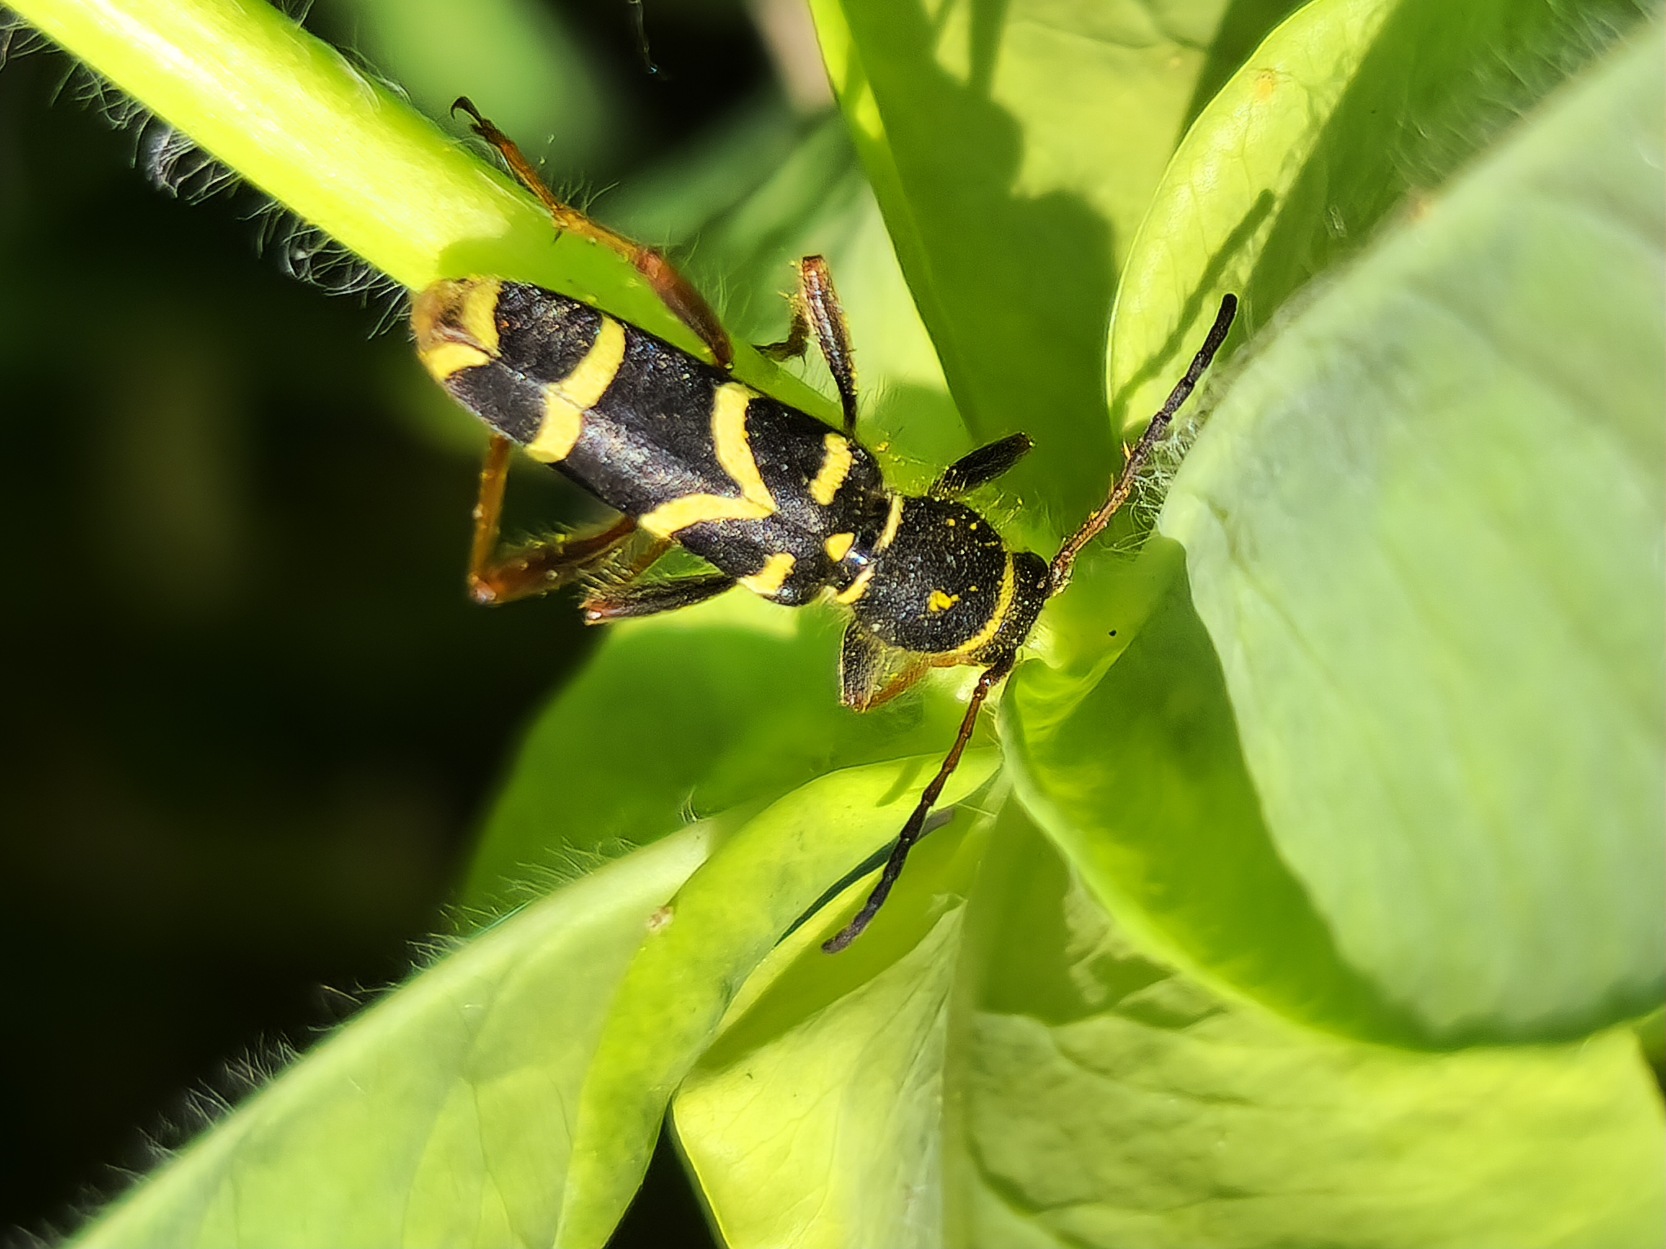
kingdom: Animalia
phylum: Arthropoda
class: Insecta
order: Coleoptera
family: Cerambycidae
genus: Clytus
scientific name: Clytus arietis
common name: Lille hvepsebuk
